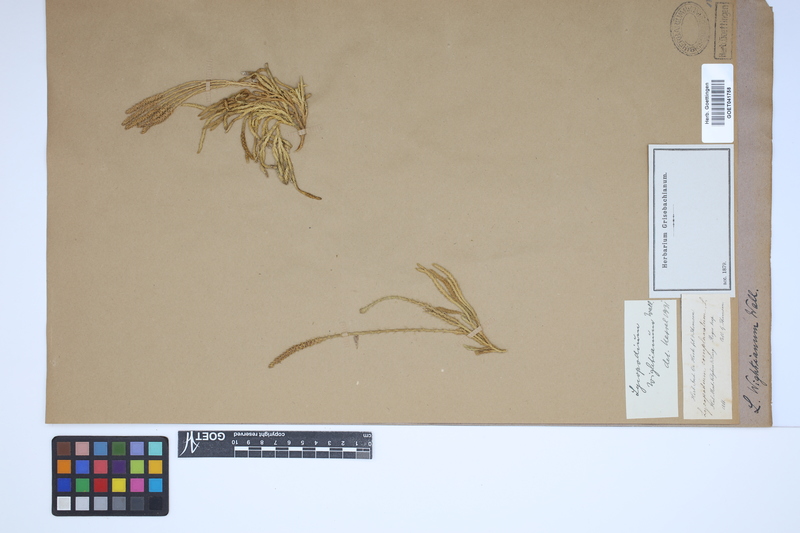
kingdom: Plantae
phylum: Tracheophyta
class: Lycopodiopsida
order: Lycopodiales
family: Lycopodiaceae
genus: Diphasiastrum
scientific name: Diphasiastrum wightianum
